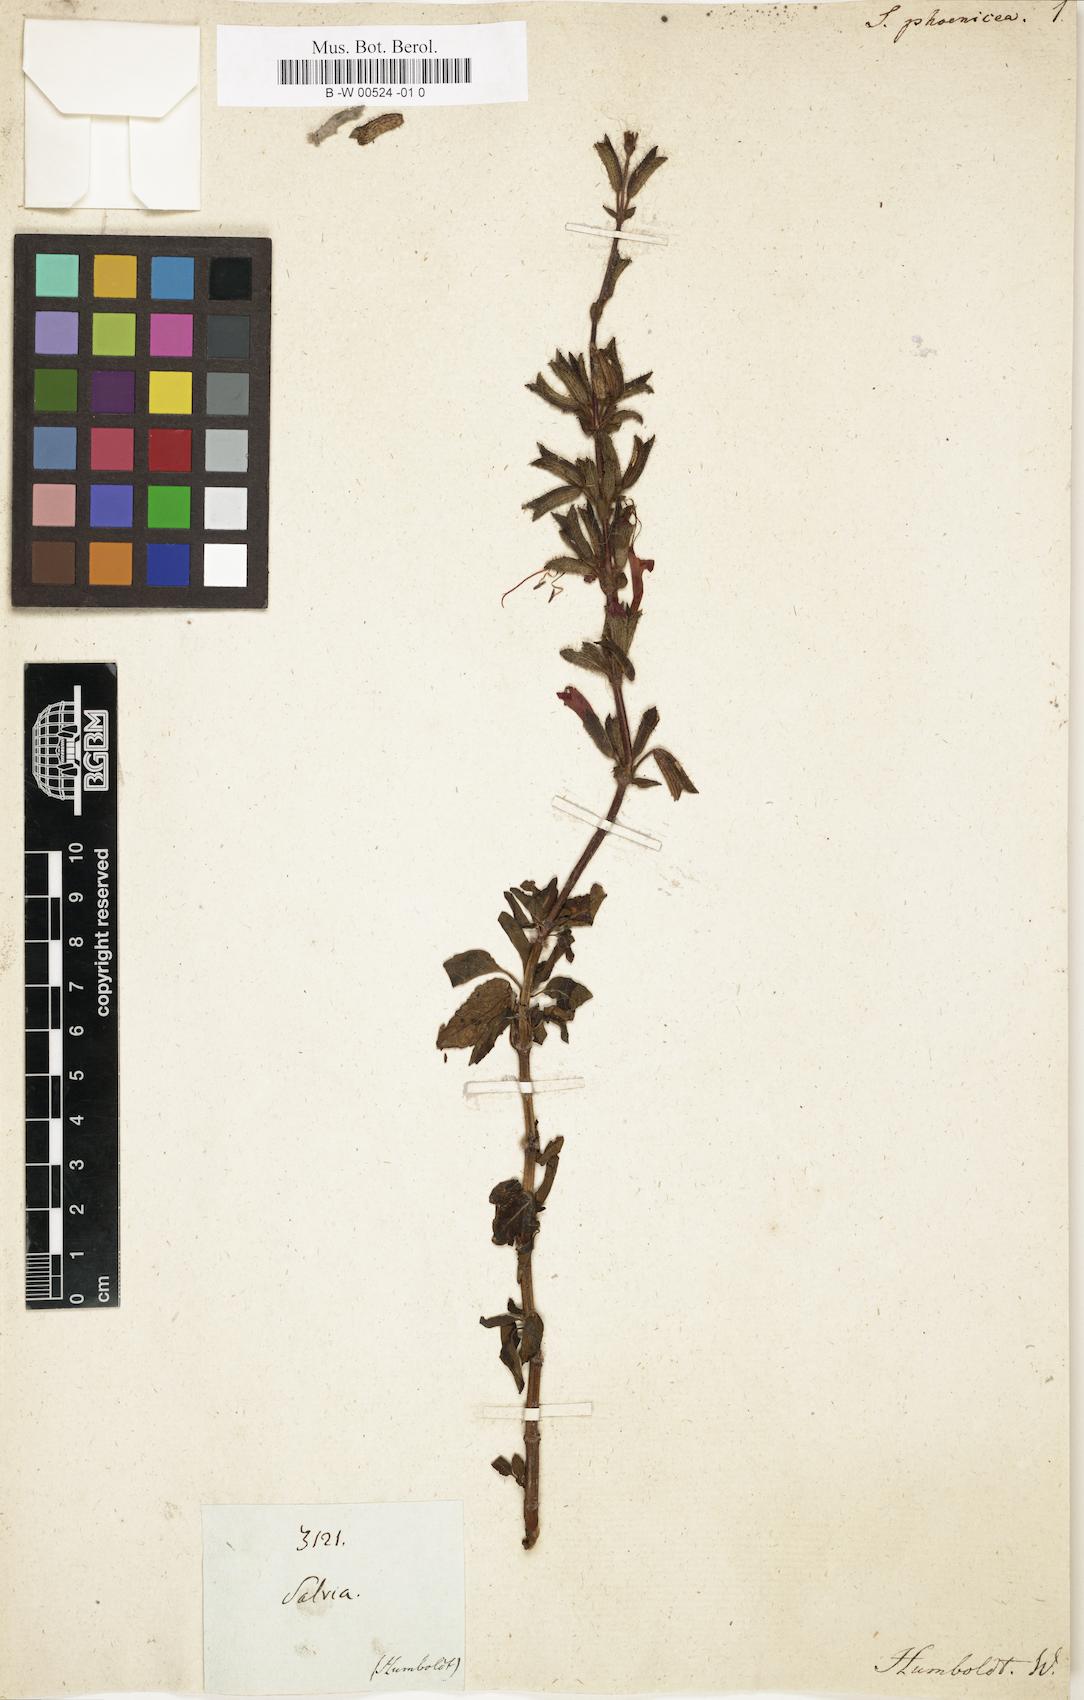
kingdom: Plantae
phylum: Tracheophyta
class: Magnoliopsida
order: Lamiales
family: Lamiaceae
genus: Salvia
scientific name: Salvia hirtella
